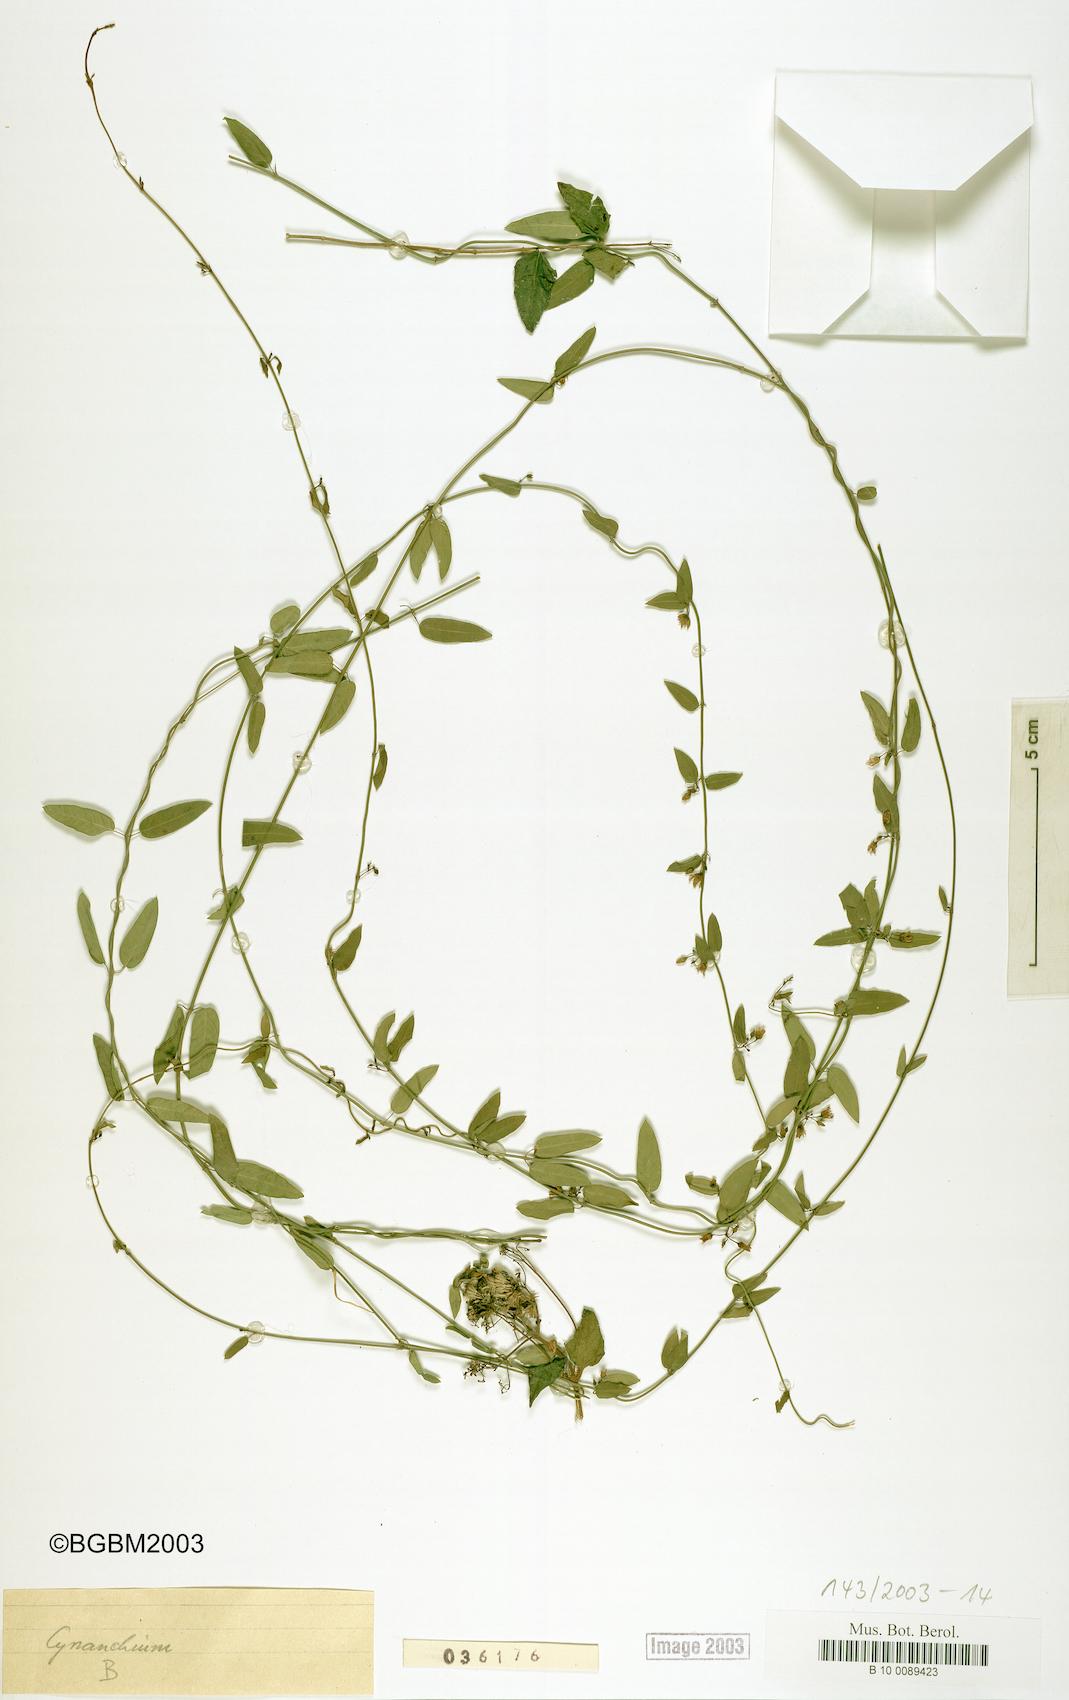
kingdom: Plantae
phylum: Tracheophyta
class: Magnoliopsida
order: Gentianales
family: Apocynaceae
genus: Metastelma
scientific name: Metastelma cubense
